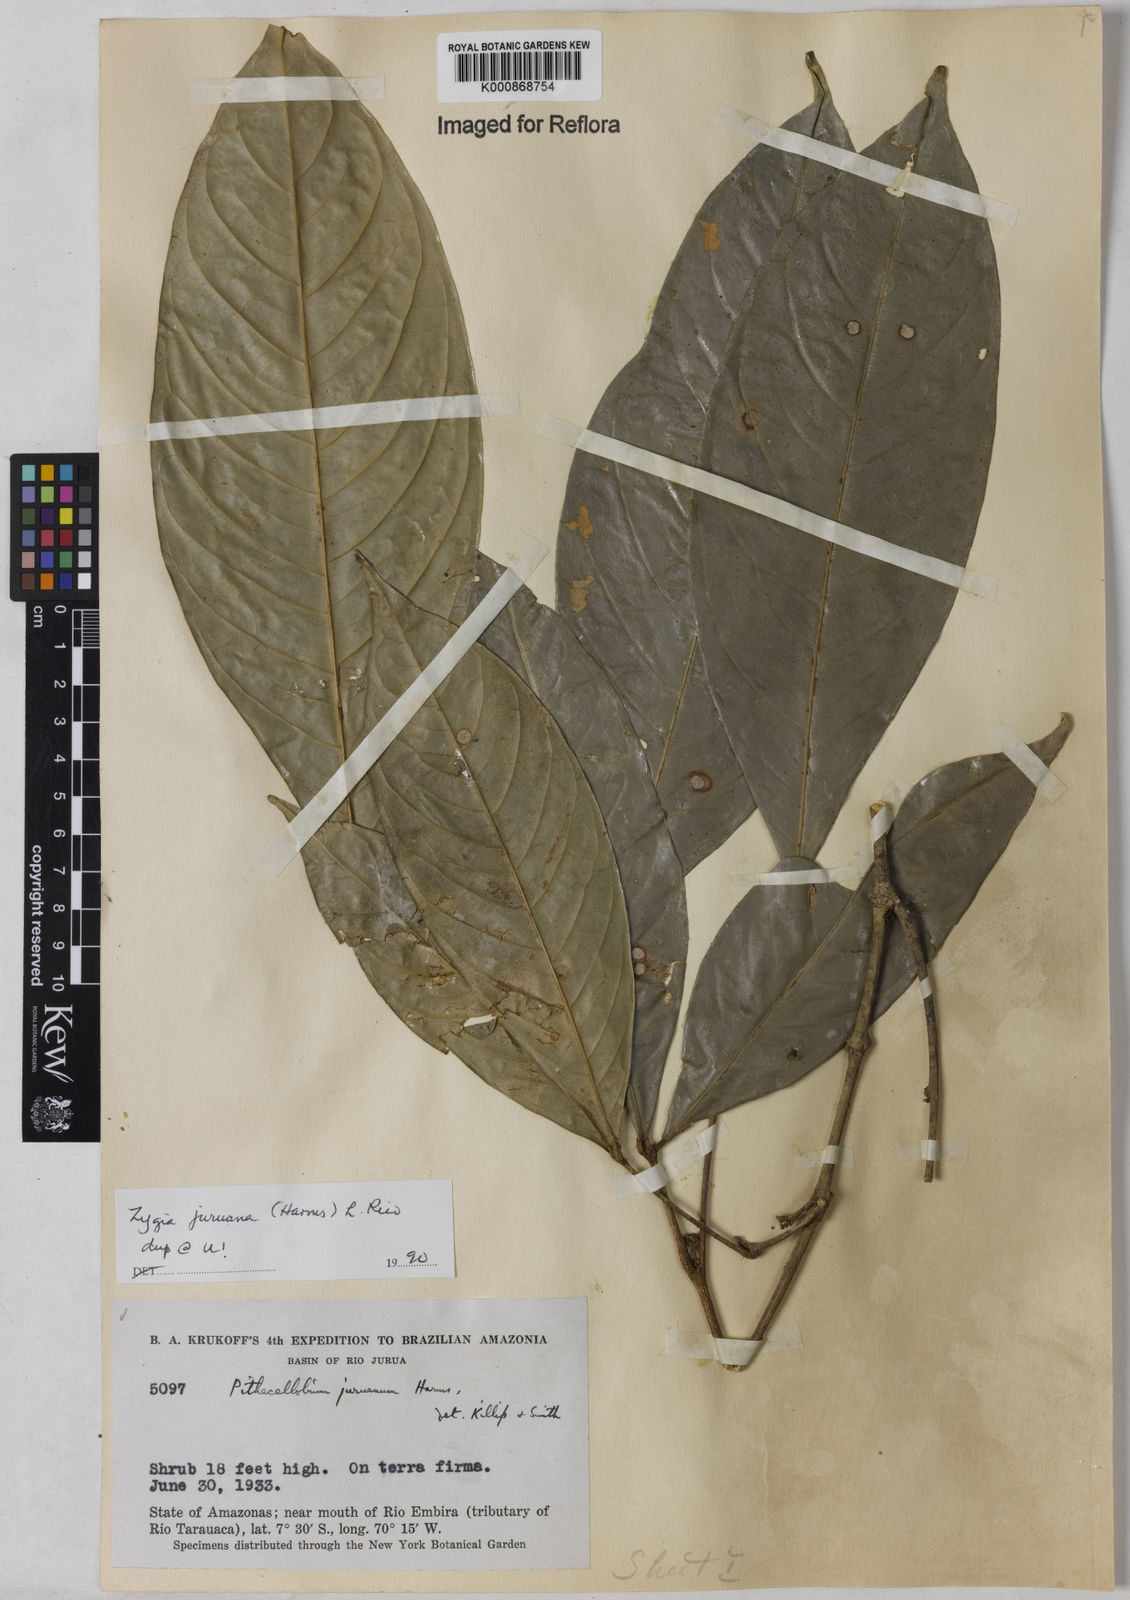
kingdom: Plantae
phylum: Tracheophyta
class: Magnoliopsida
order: Fabales
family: Fabaceae
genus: Zygia
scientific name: Zygia juruana
